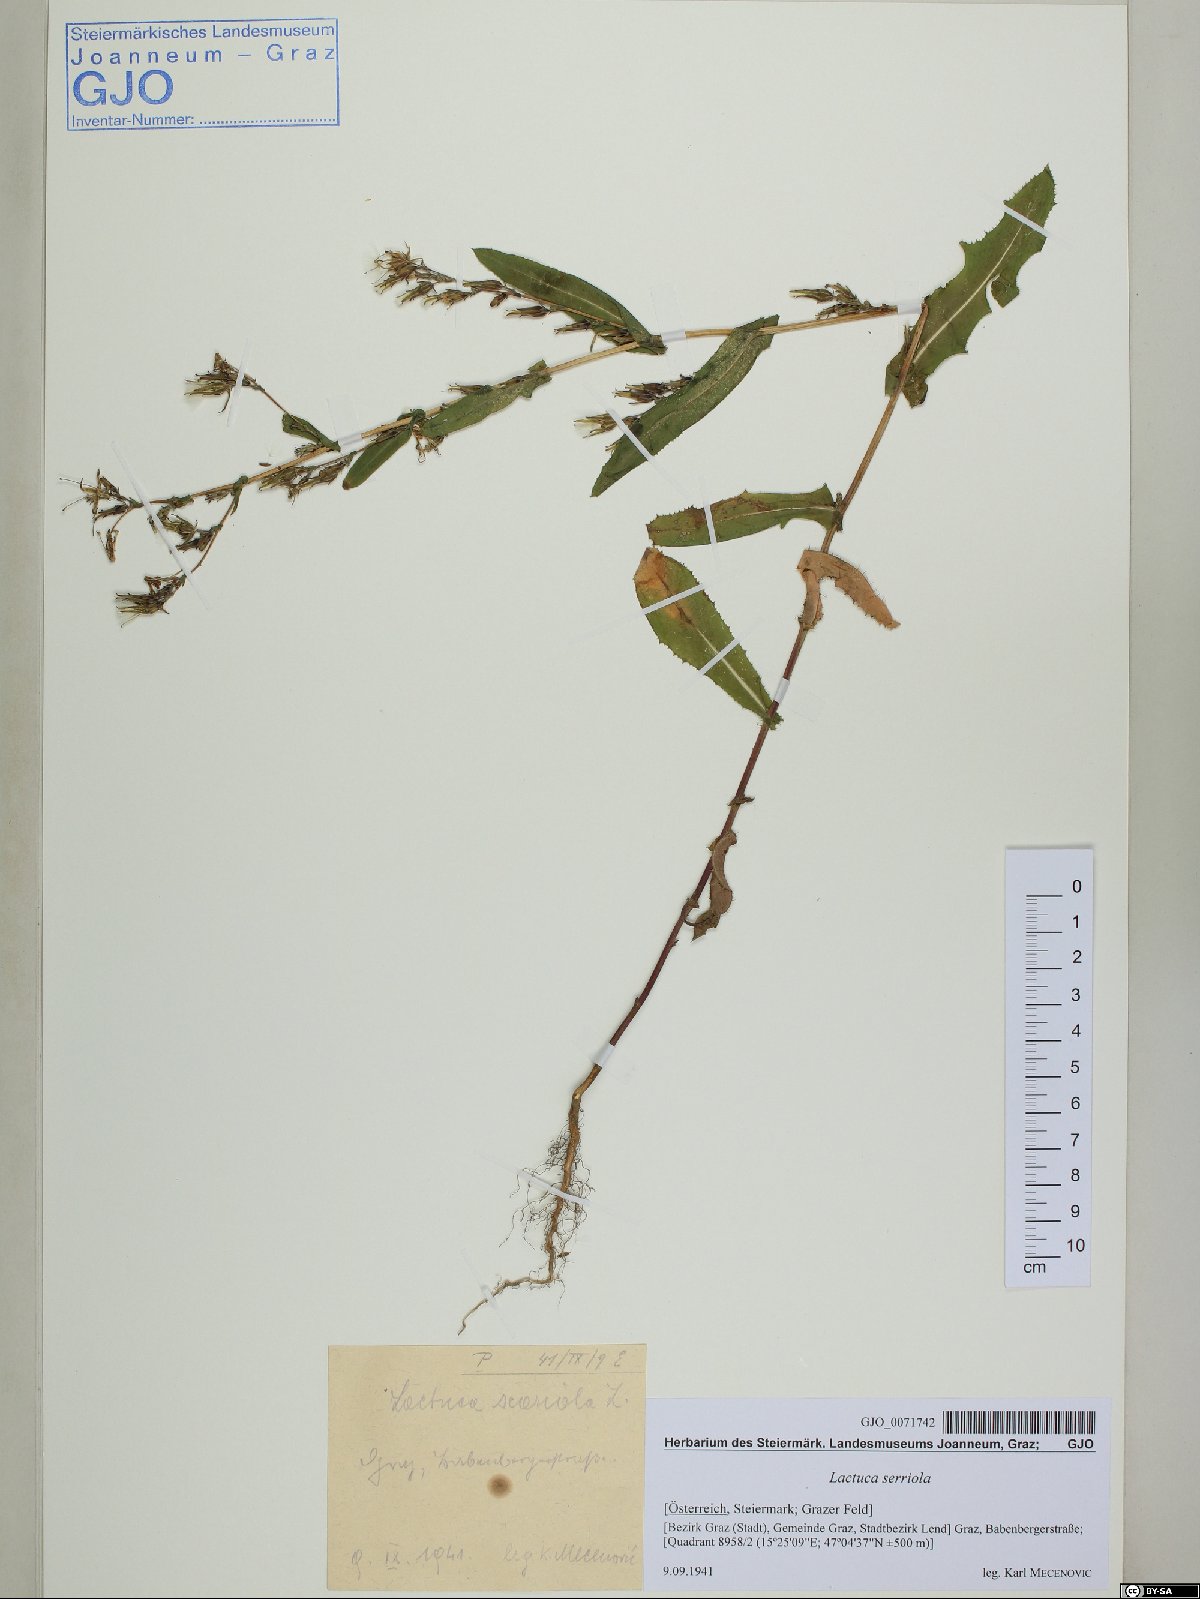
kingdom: Plantae
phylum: Tracheophyta
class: Magnoliopsida
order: Asterales
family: Asteraceae
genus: Lactuca
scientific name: Lactuca serriola
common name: Prickly lettuce
